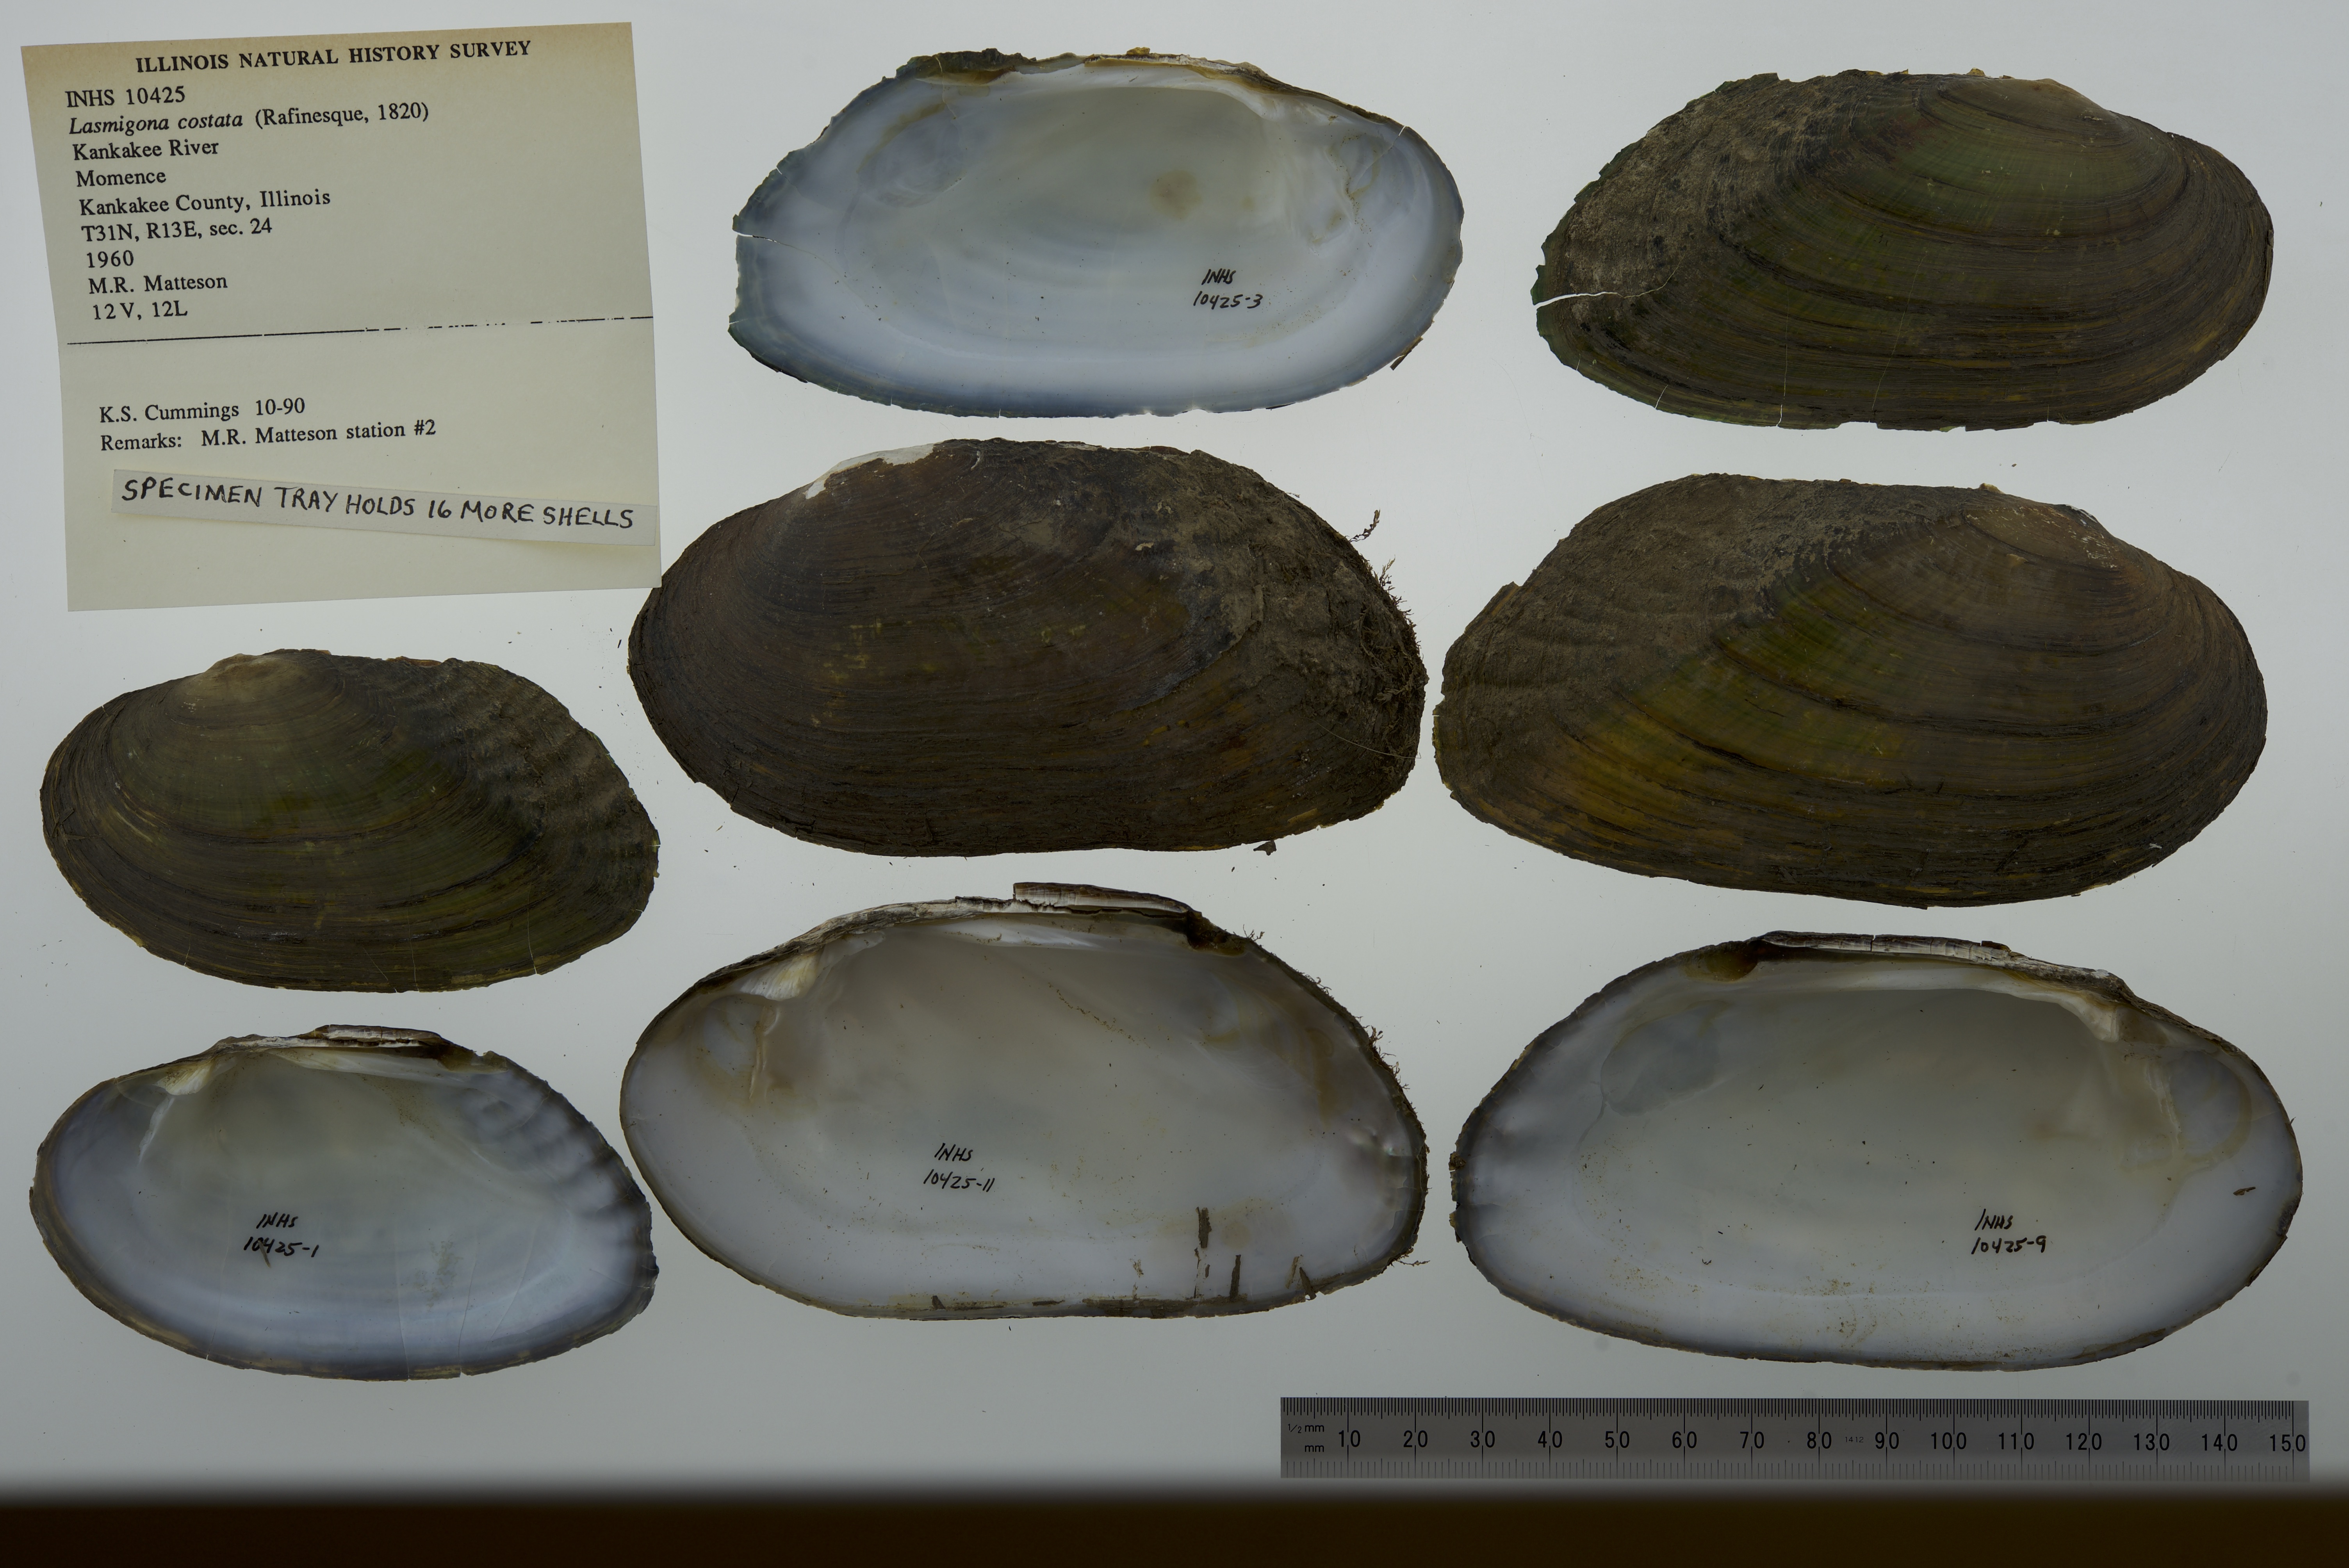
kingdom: Animalia
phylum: Mollusca
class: Bivalvia
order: Unionida
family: Unionidae
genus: Lasmigona
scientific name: Lasmigona costata
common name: Flutedshell
